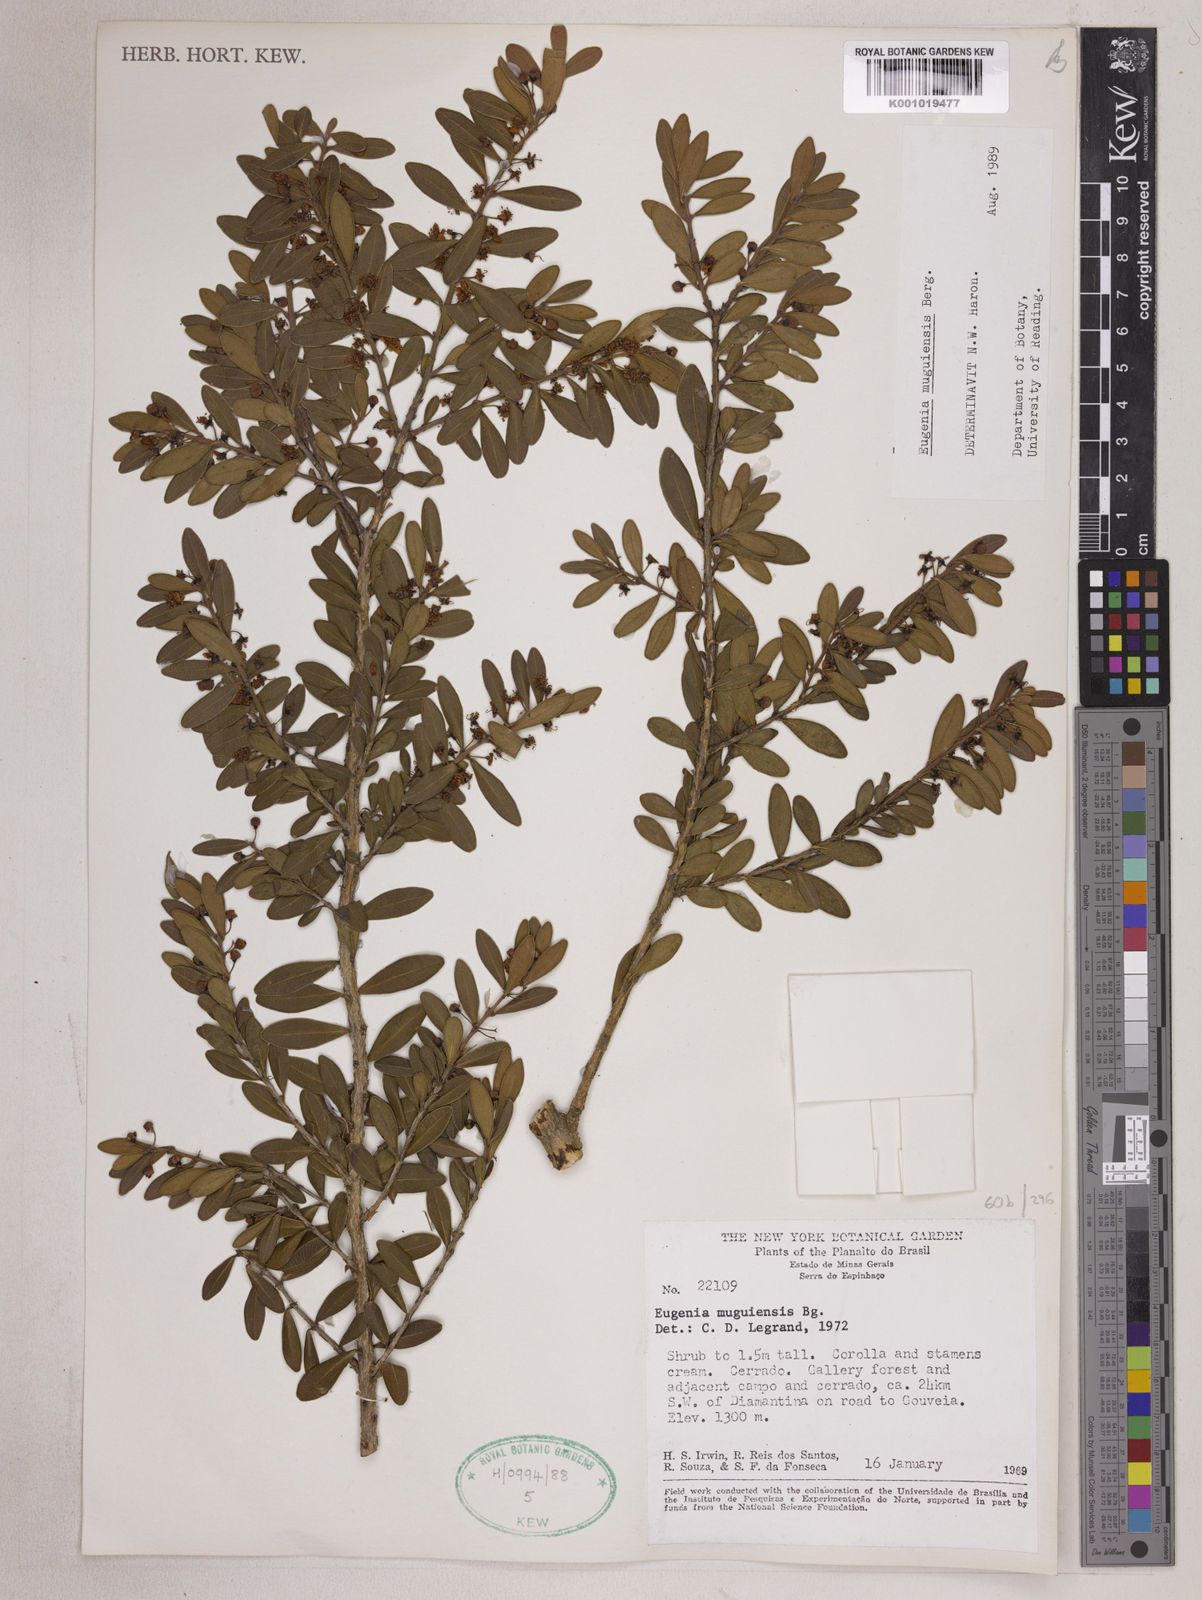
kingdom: Plantae
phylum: Tracheophyta
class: Magnoliopsida
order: Myrtales
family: Myrtaceae
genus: Eugenia
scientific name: Eugenia punicifolia
